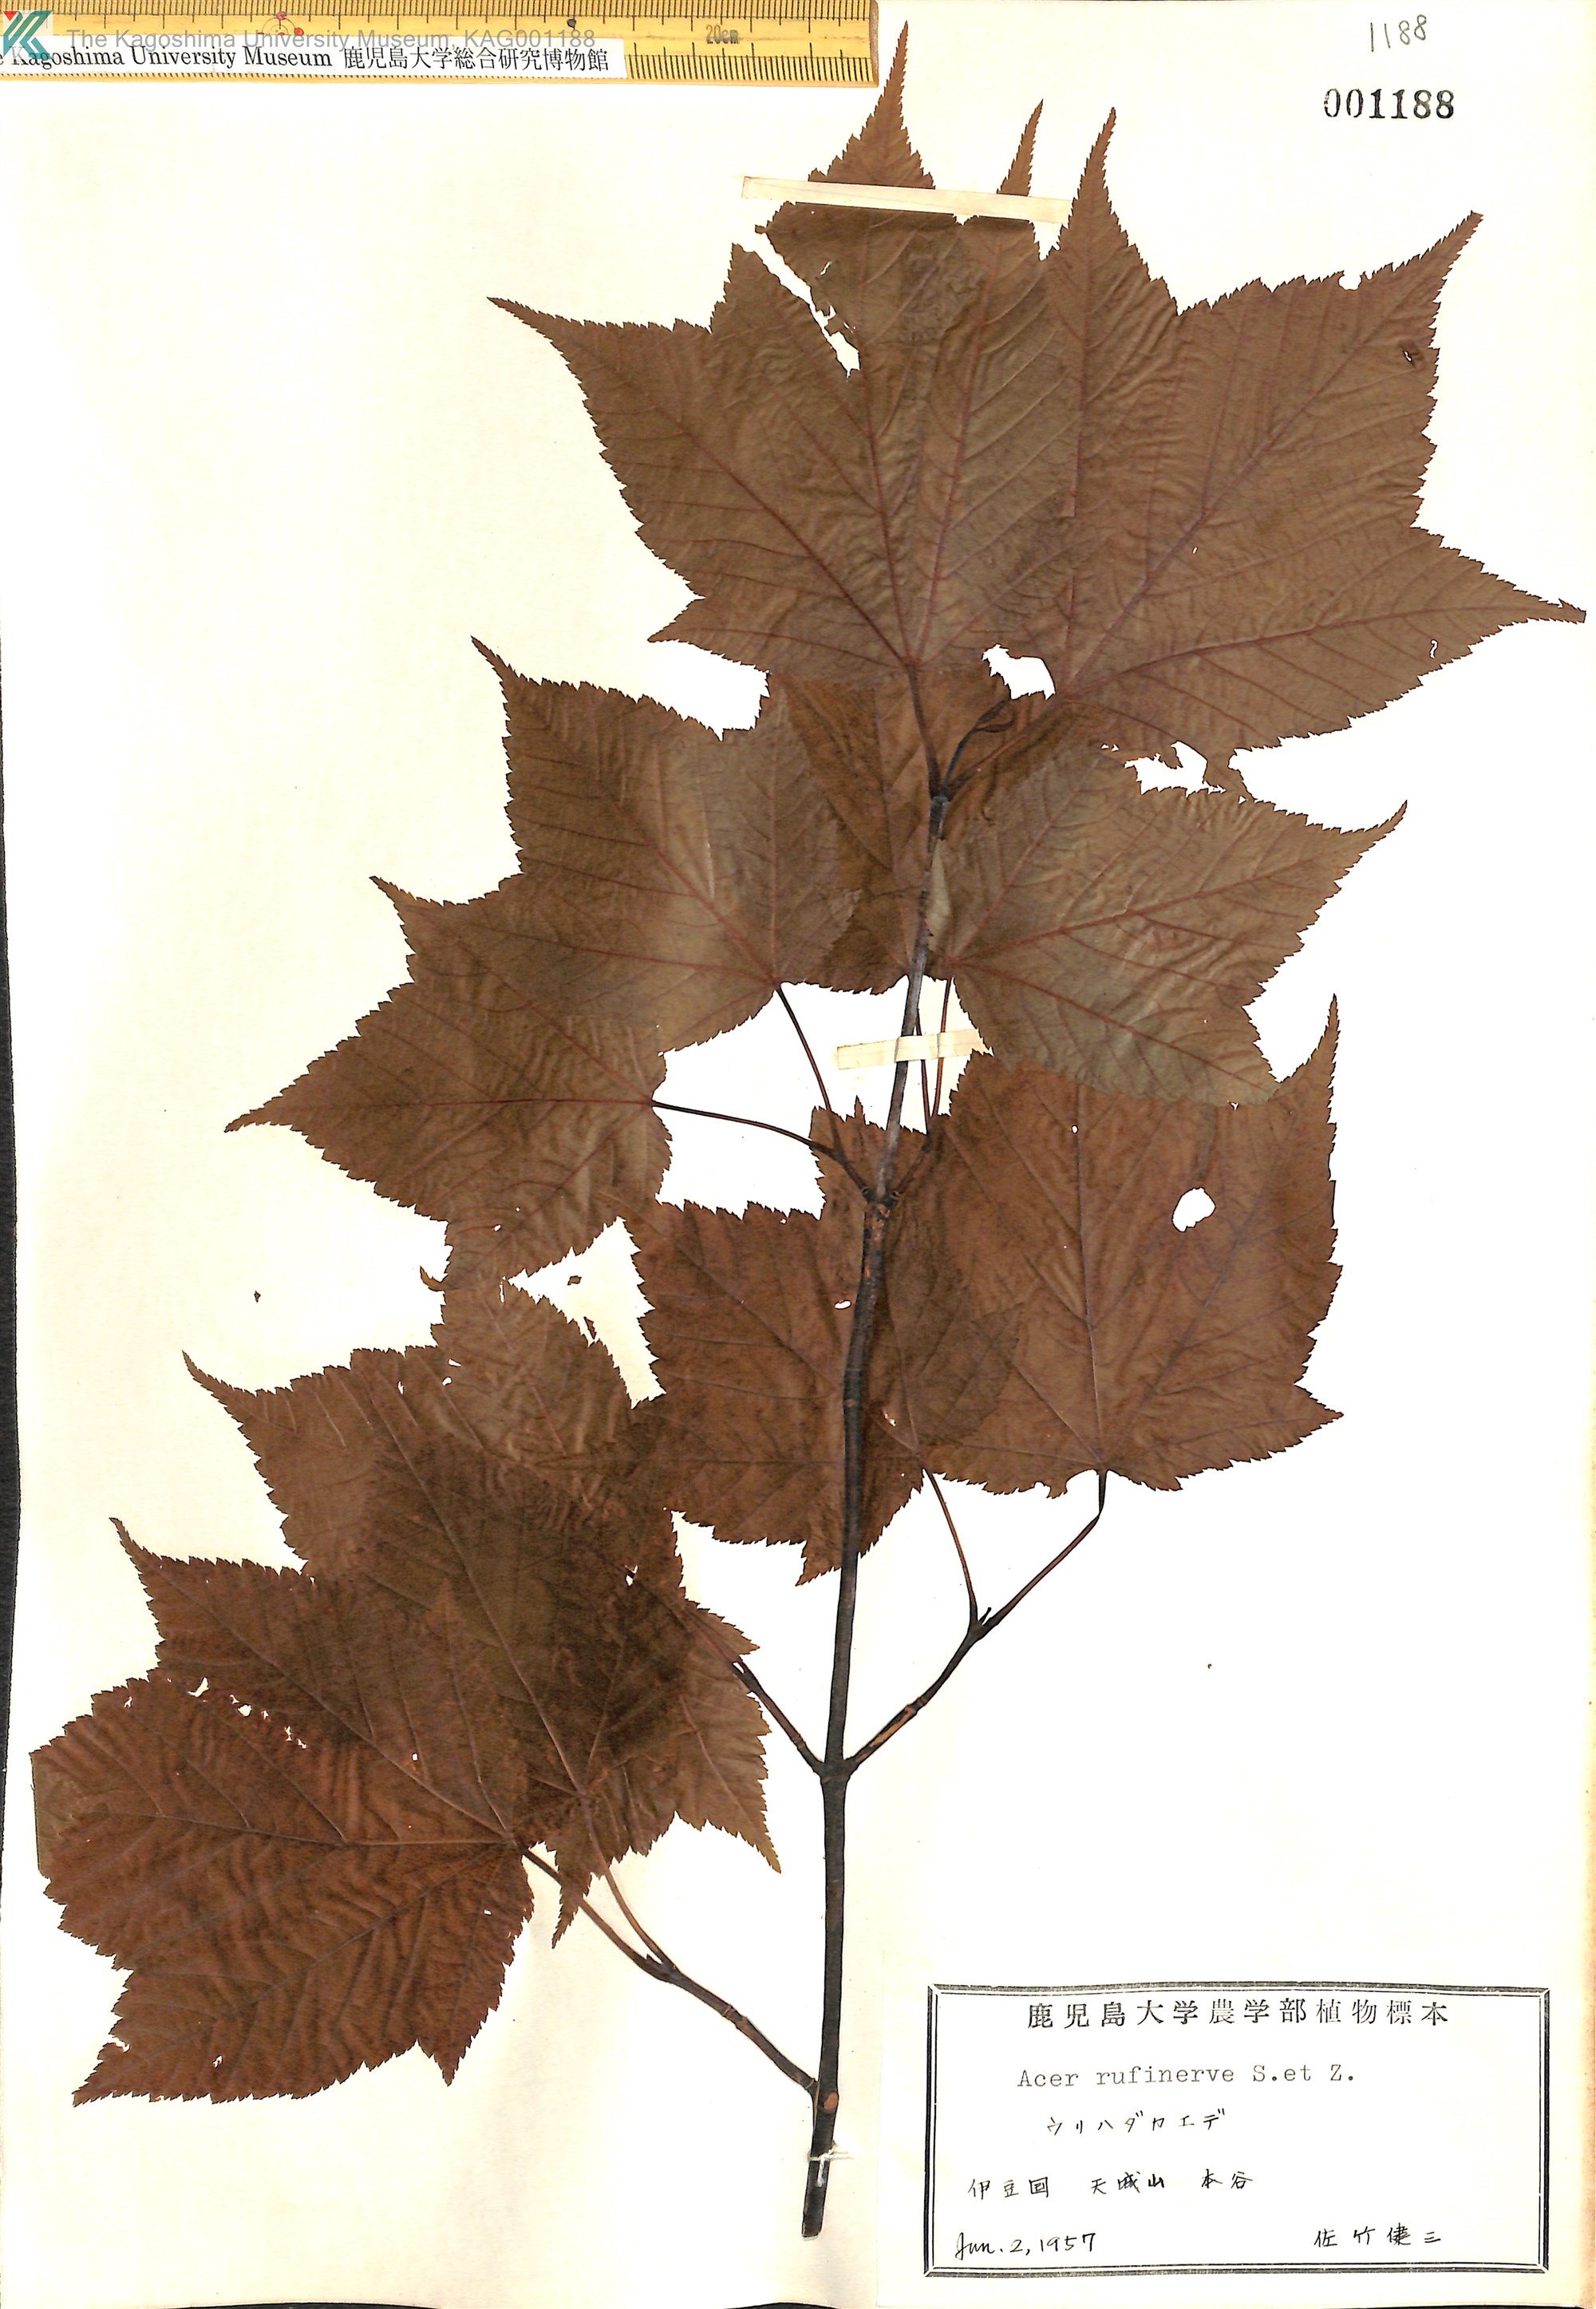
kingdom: Plantae
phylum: Tracheophyta
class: Magnoliopsida
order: Sapindales
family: Sapindaceae
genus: Acer
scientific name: Acer rufinerve
